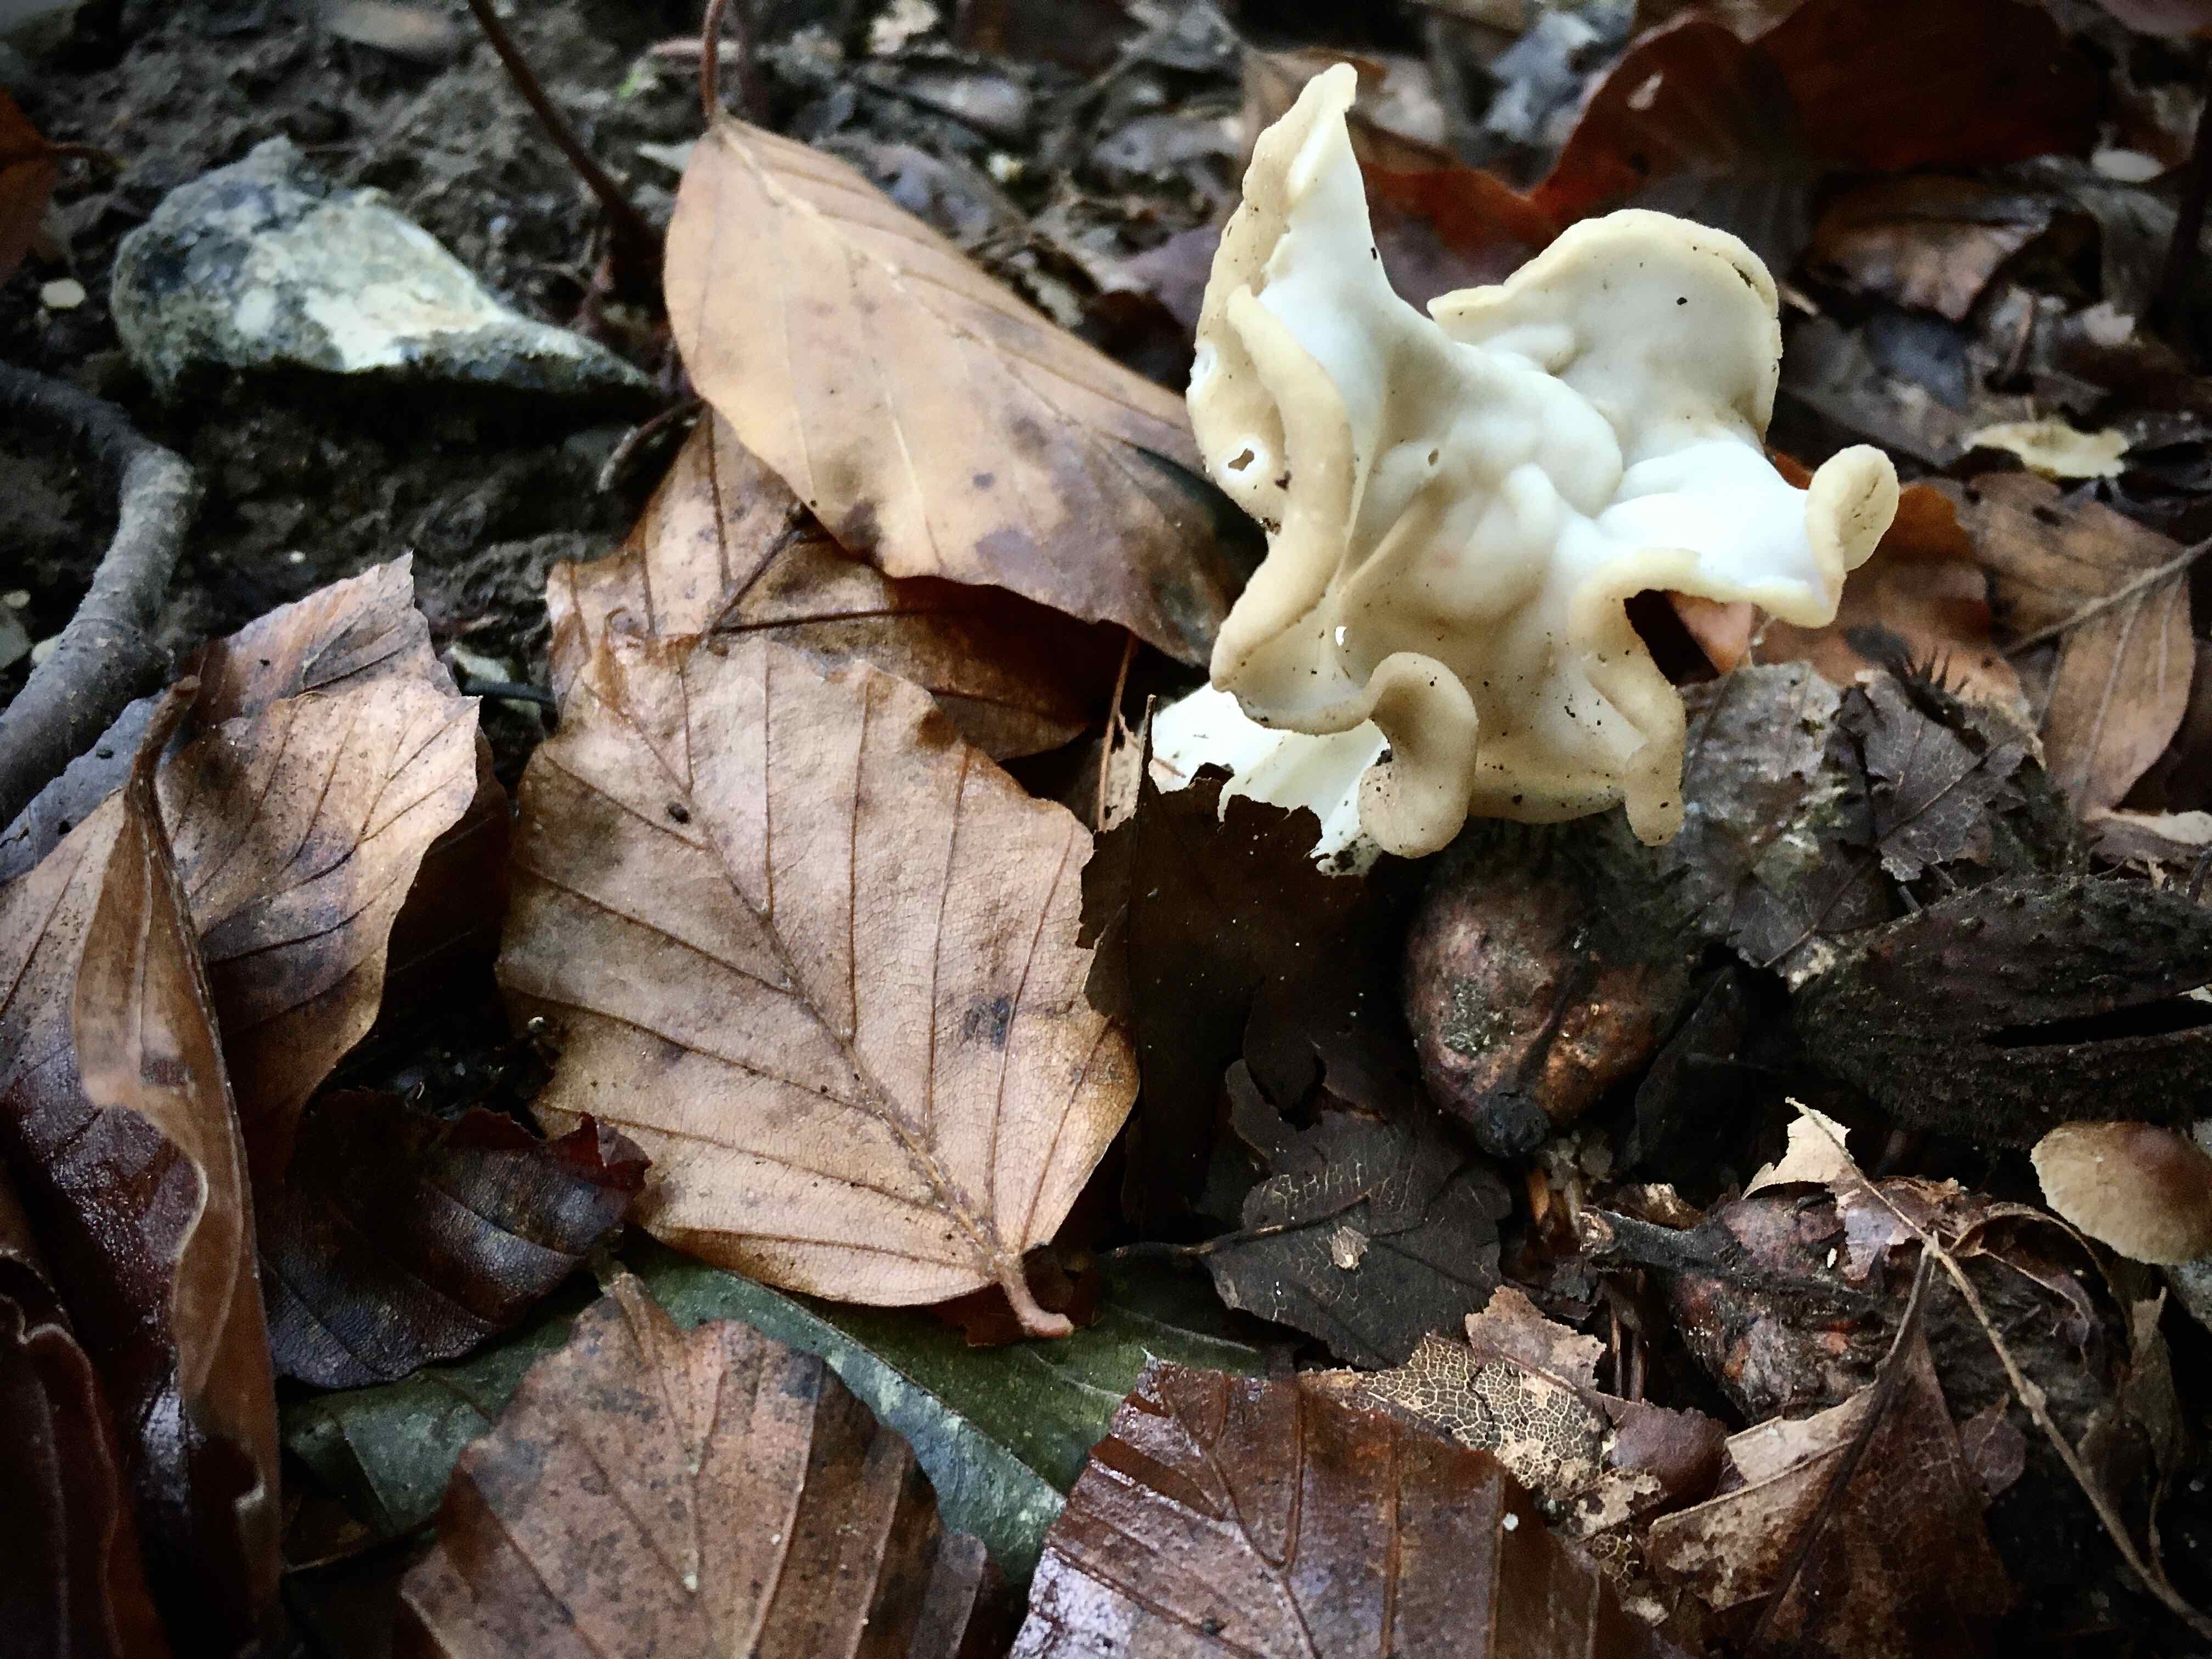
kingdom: Fungi
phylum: Ascomycota
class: Pezizomycetes
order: Pezizales
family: Helvellaceae
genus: Helvella
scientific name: Helvella crispa
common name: kruset foldhat
